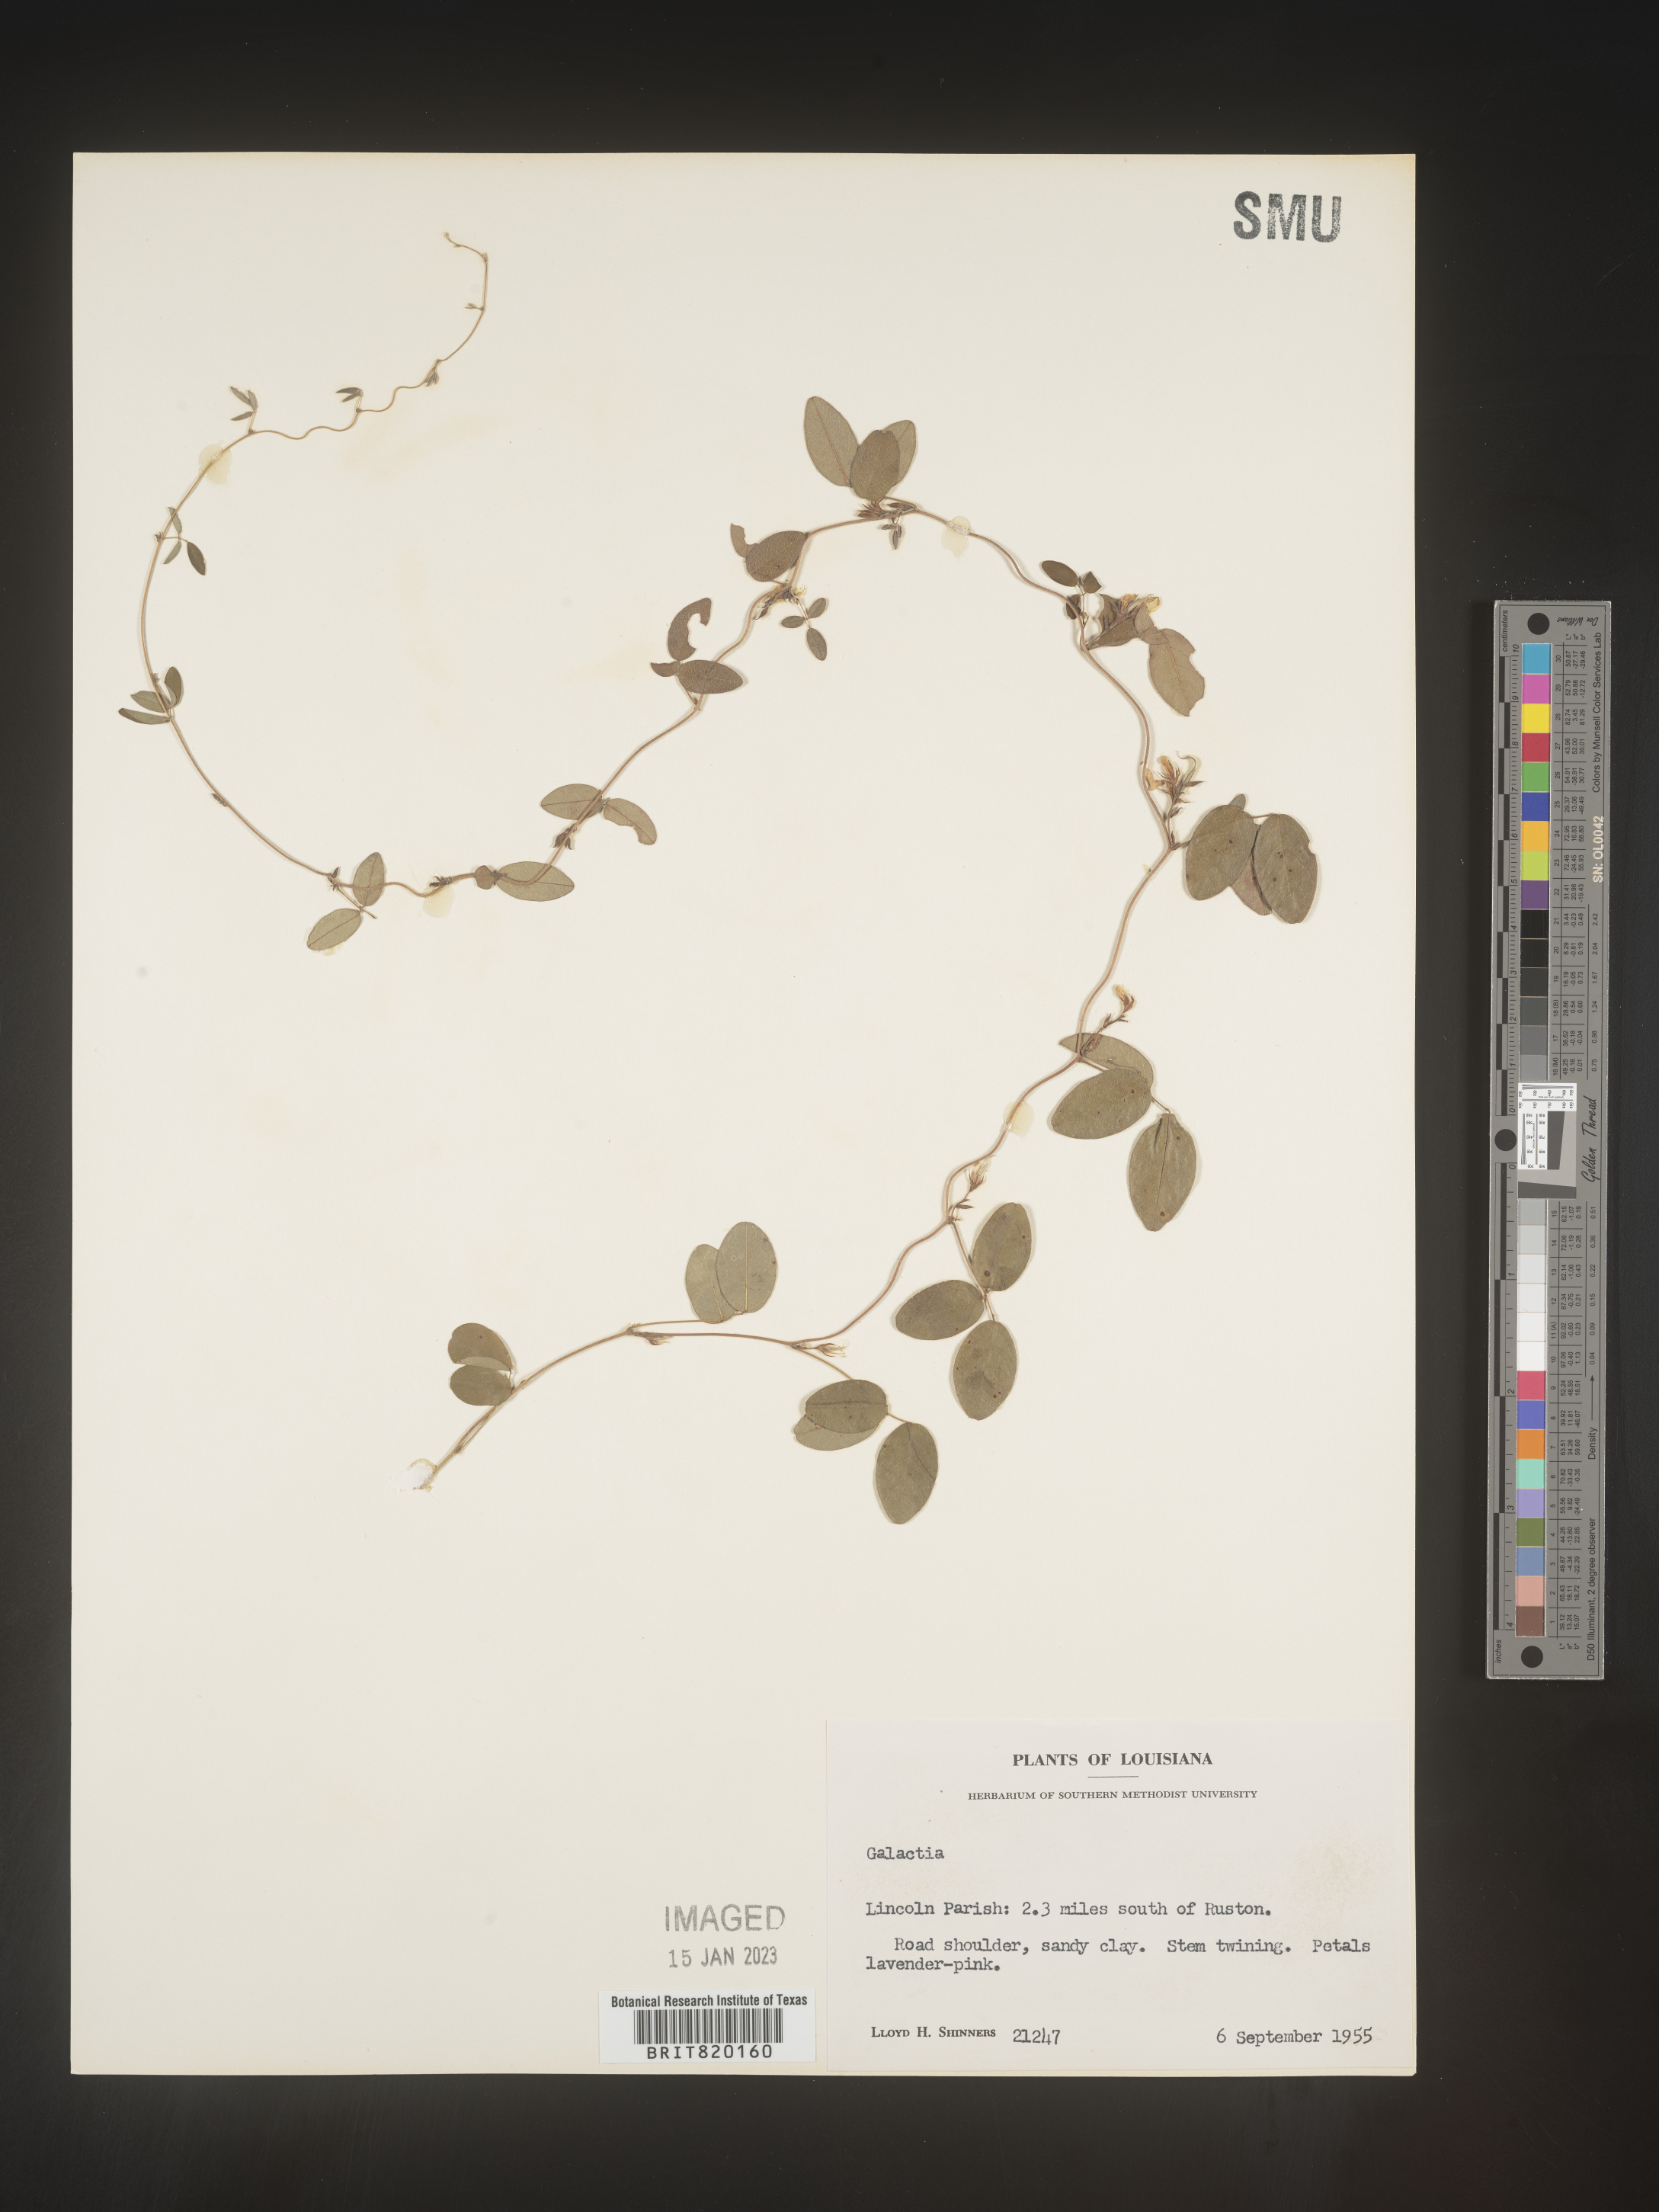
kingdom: Plantae
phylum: Tracheophyta
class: Magnoliopsida
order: Fabales
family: Fabaceae
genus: Galactia
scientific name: Galactia volubilis
